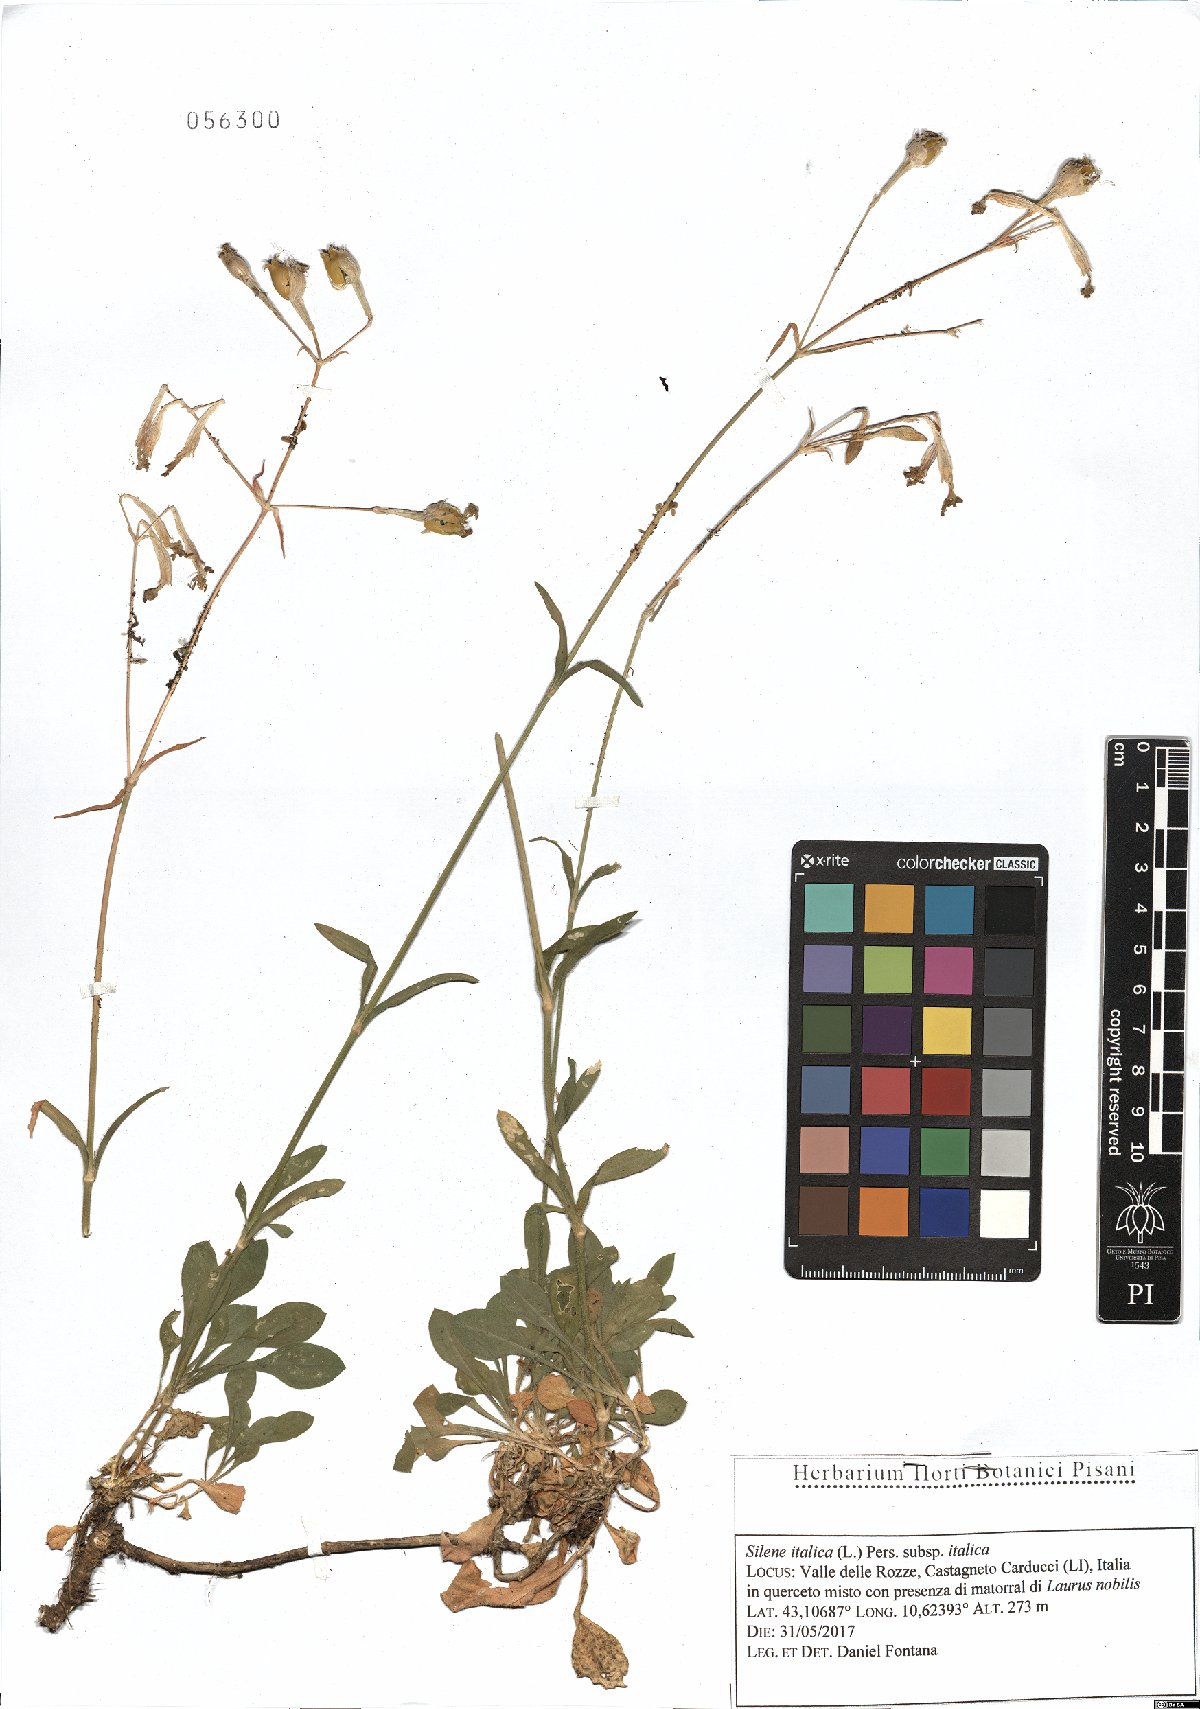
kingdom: Plantae
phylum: Tracheophyta
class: Magnoliopsida
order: Caryophyllales
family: Caryophyllaceae
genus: Silene
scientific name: Silene italica
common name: Italian catchfly
